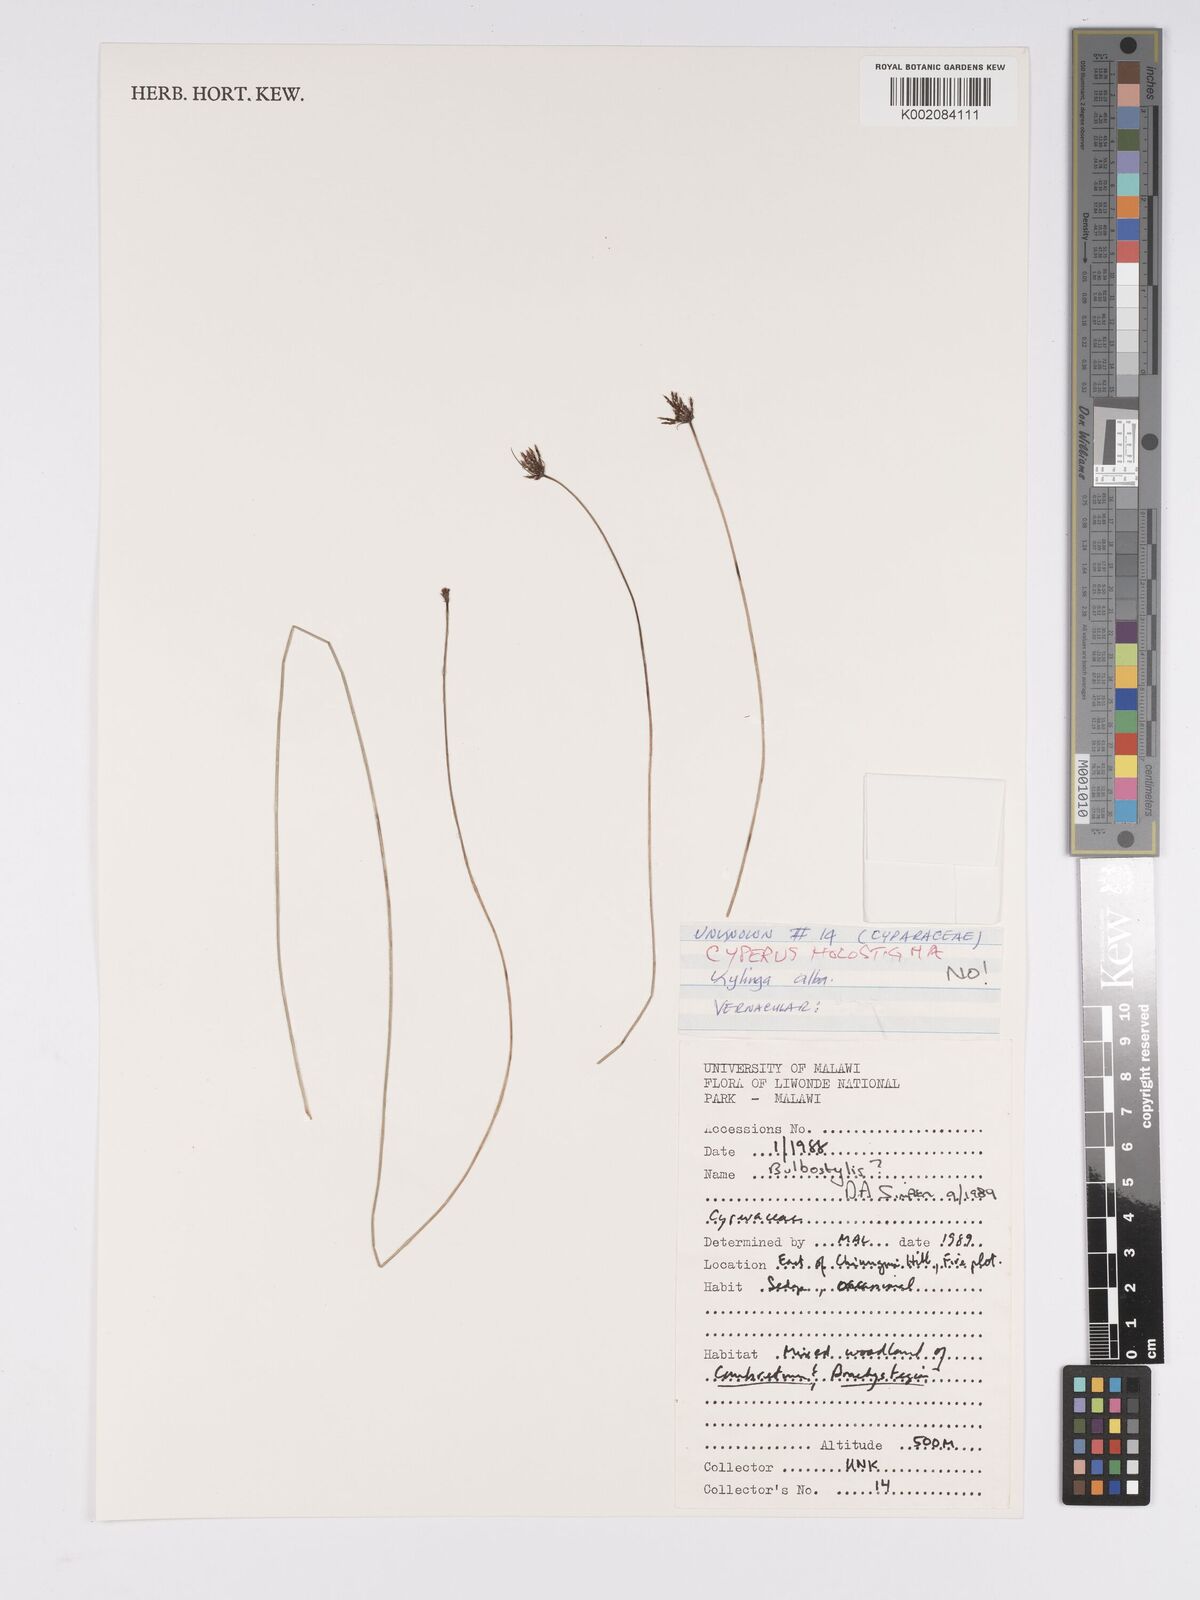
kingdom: Plantae
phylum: Tracheophyta
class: Liliopsida
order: Poales
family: Cyperaceae
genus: Bulbostylis
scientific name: Bulbostylis
